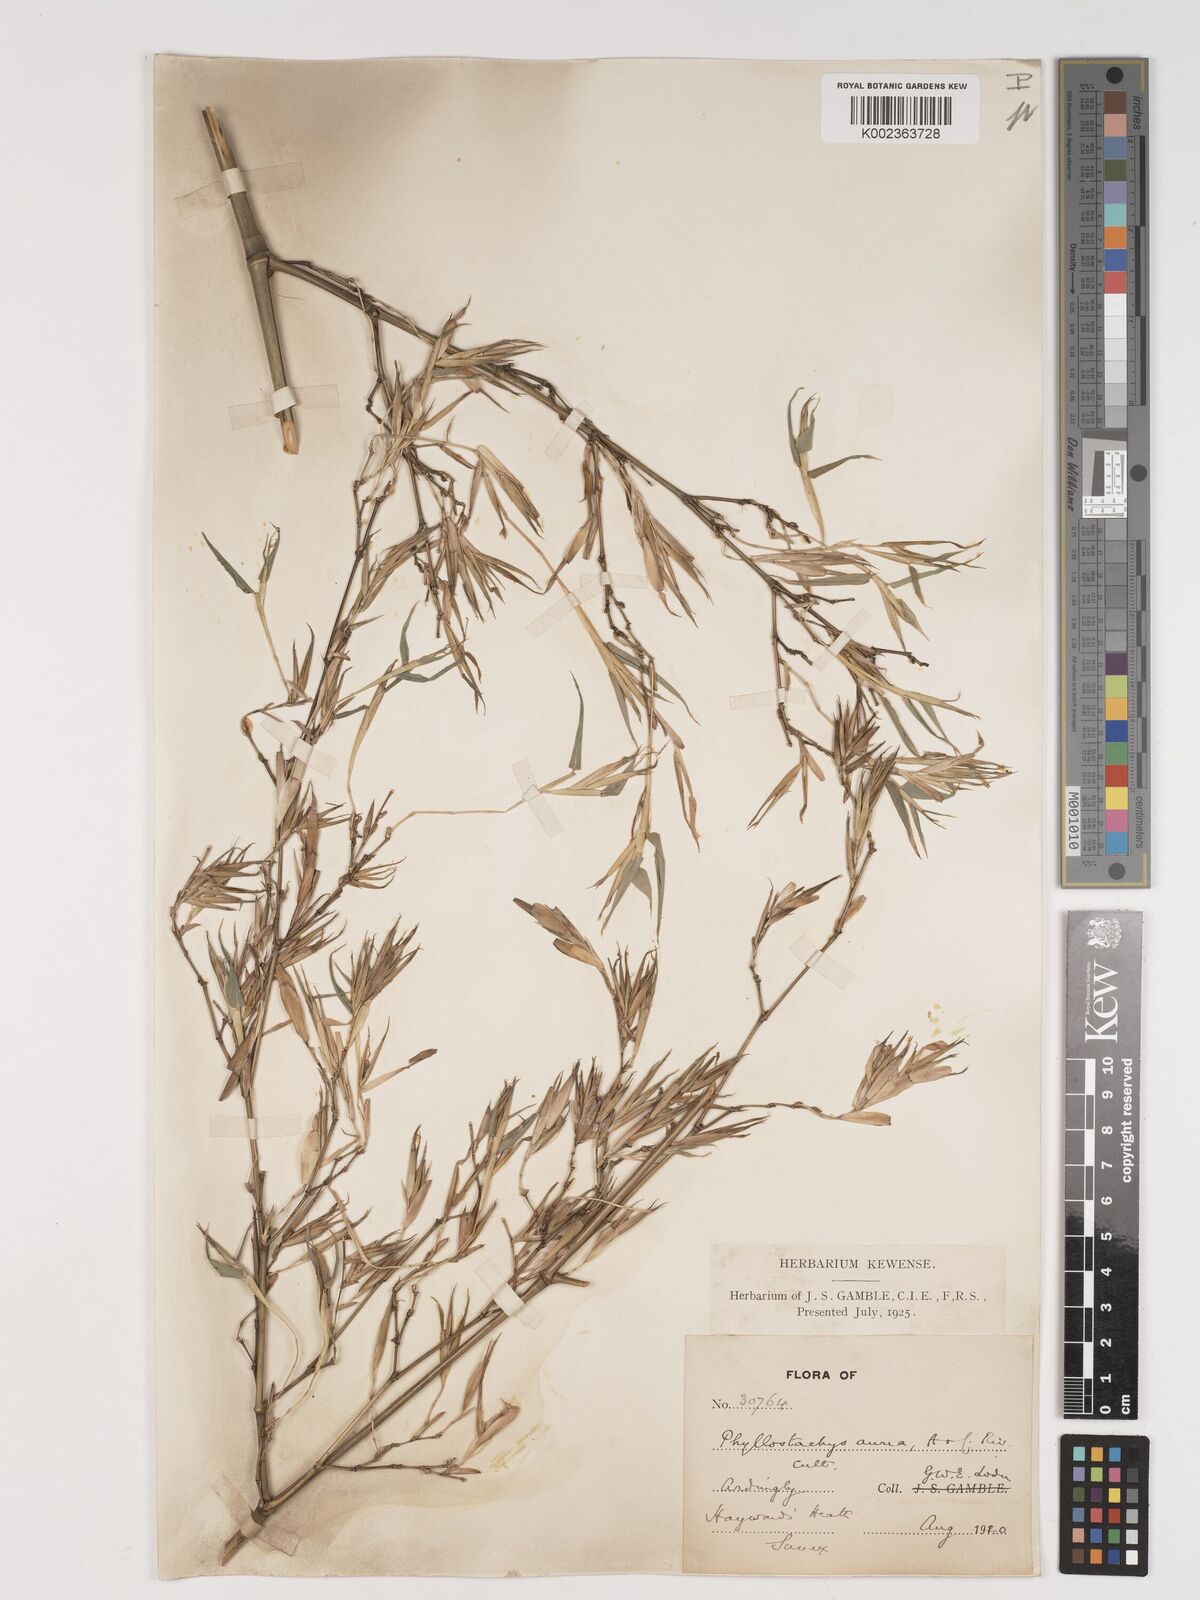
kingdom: Plantae
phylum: Tracheophyta
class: Liliopsida
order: Poales
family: Poaceae
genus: Phyllostachys
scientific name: Phyllostachys aurea
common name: Golden bamboo
